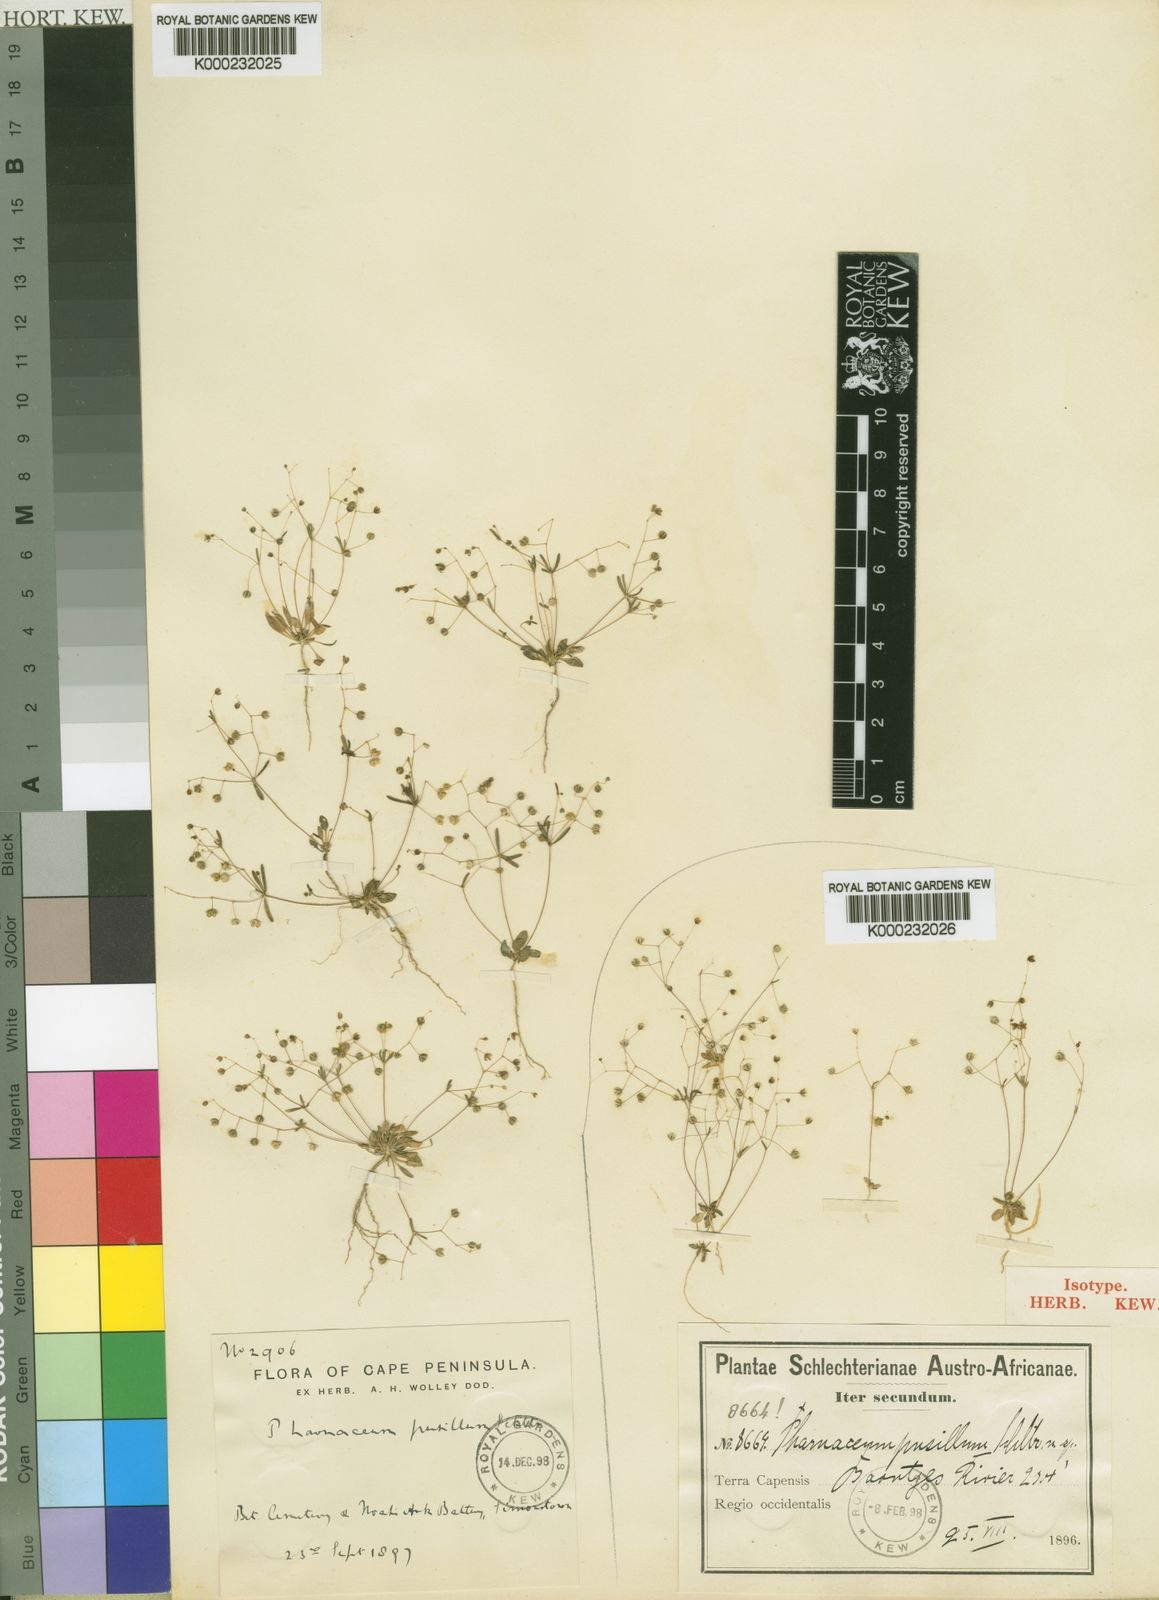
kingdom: Plantae
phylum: Tracheophyta
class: Magnoliopsida
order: Caryophyllales
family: Molluginaceae
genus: Hypertelis
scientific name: Hypertelis pusilla
